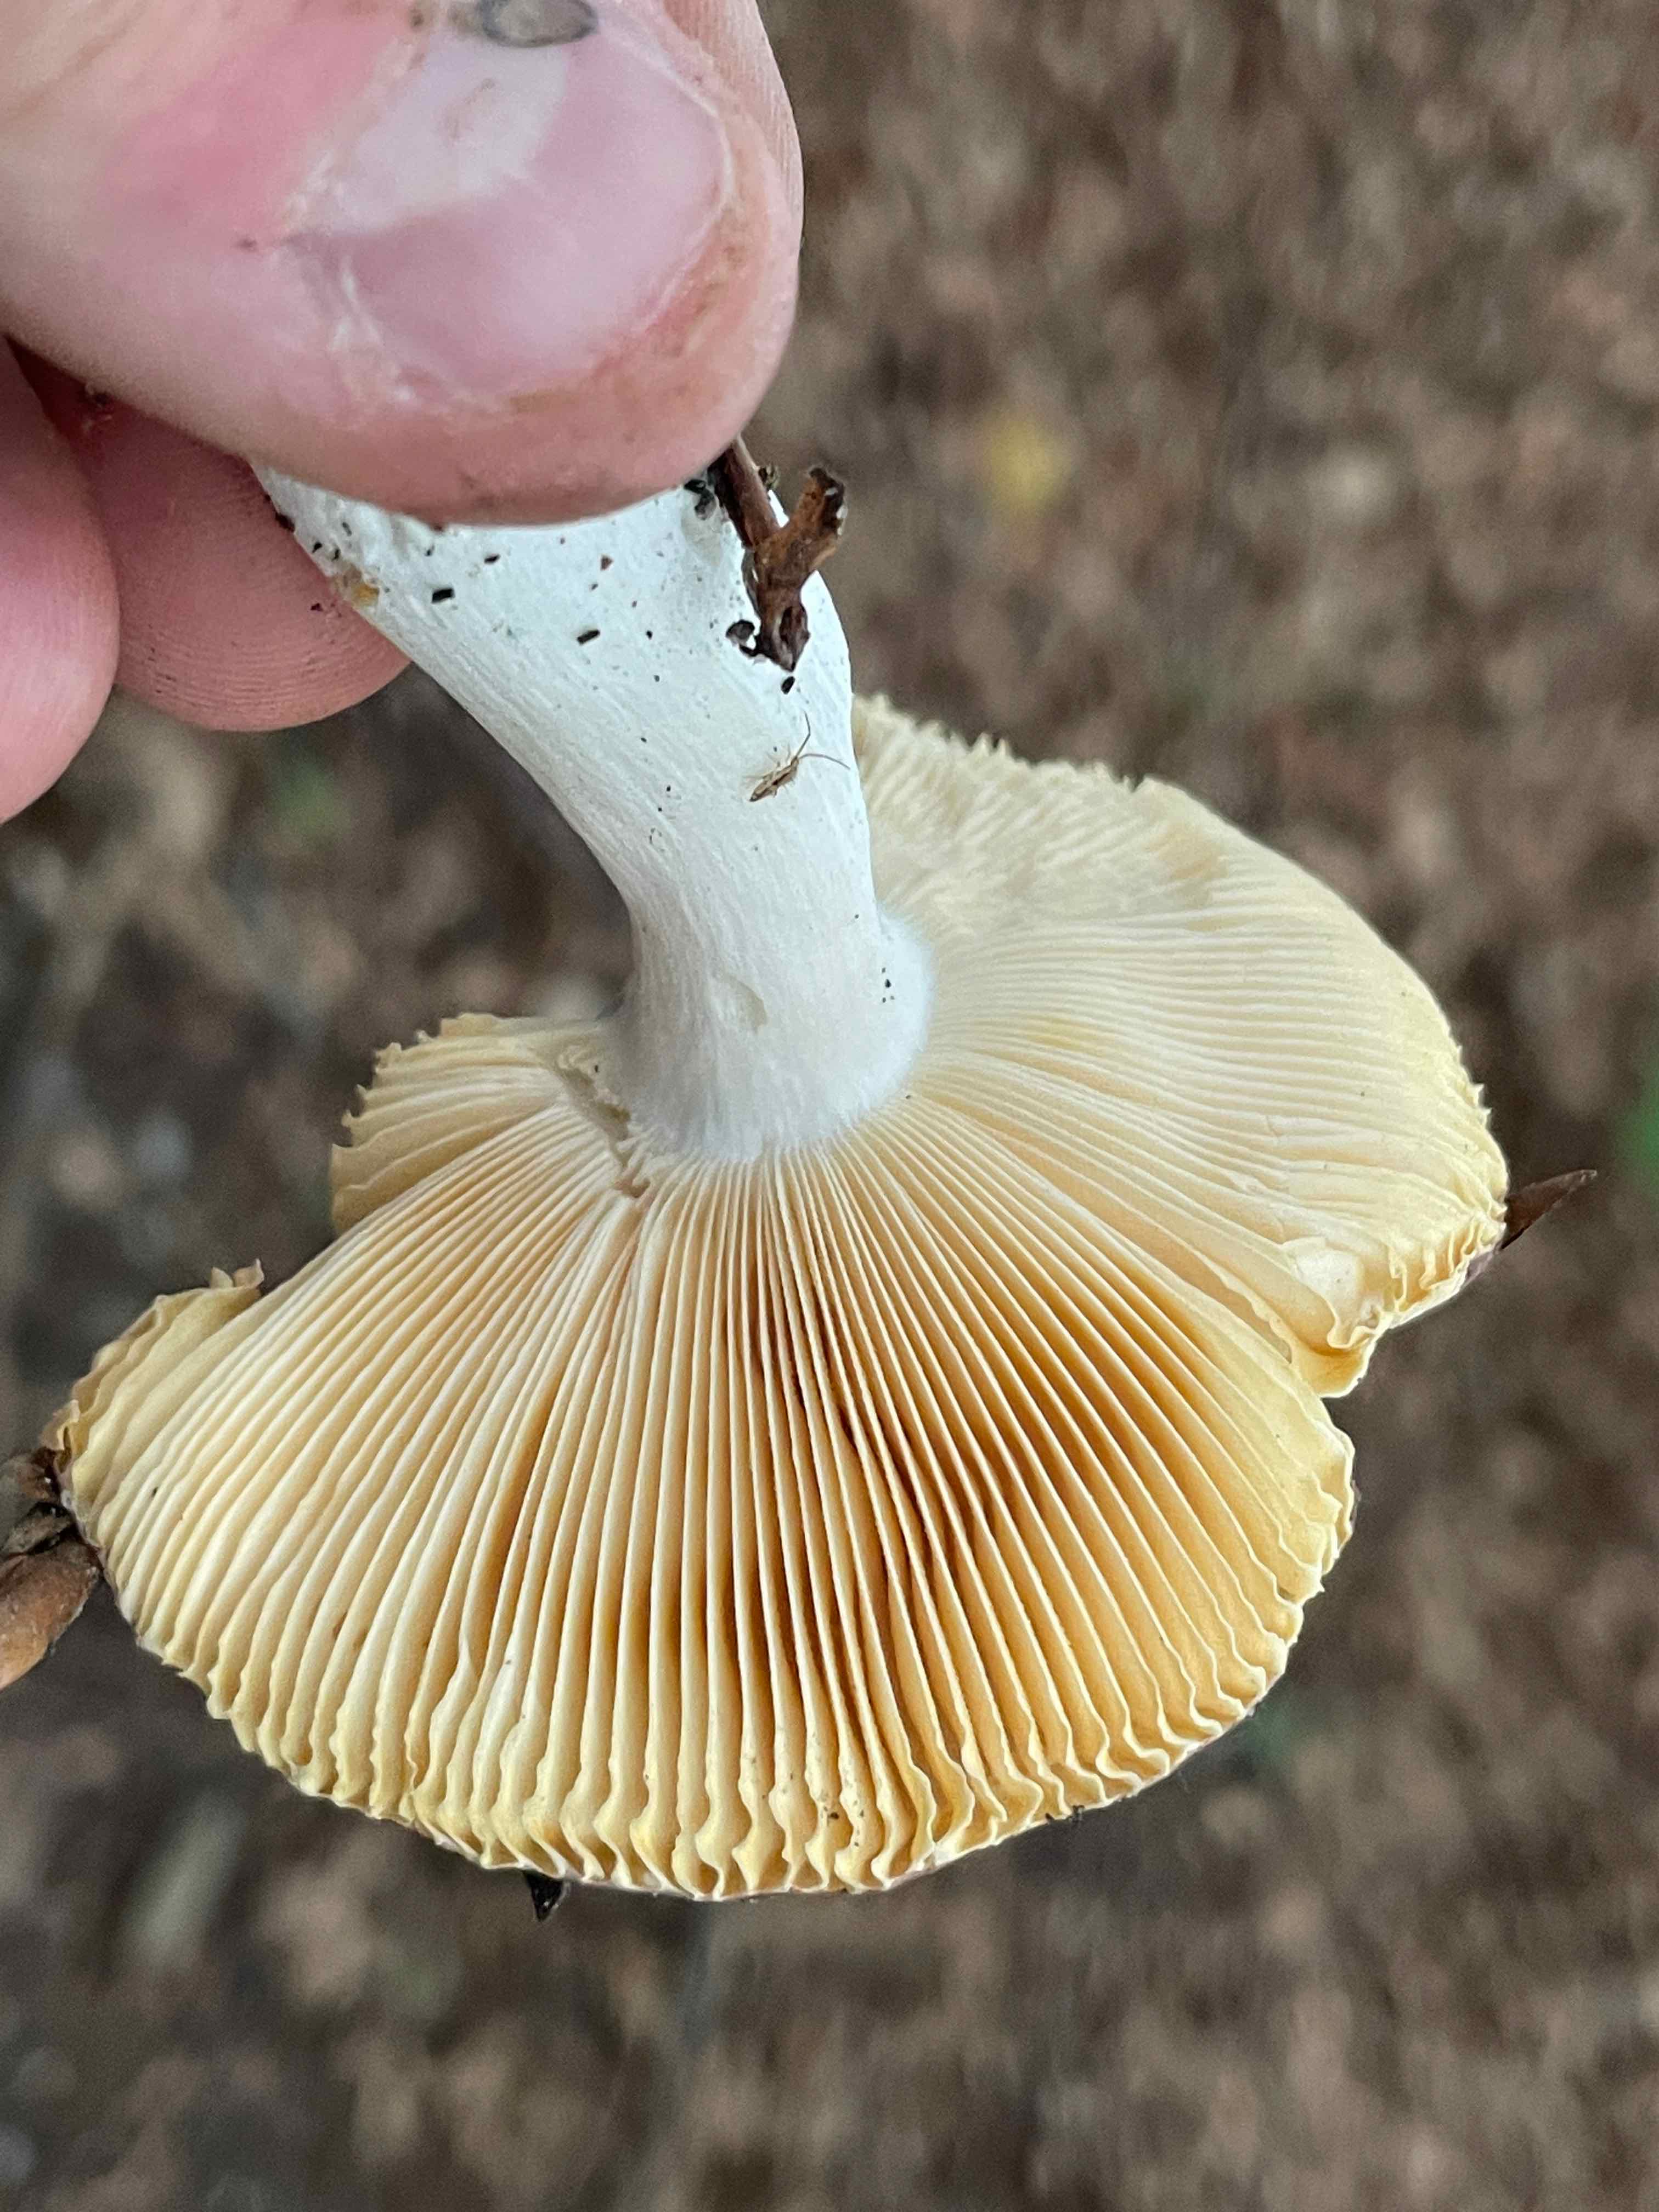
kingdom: Fungi
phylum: Basidiomycota
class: Agaricomycetes
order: Russulales
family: Russulaceae
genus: Russula
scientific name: Russula cuprea
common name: kanel-skørhat
